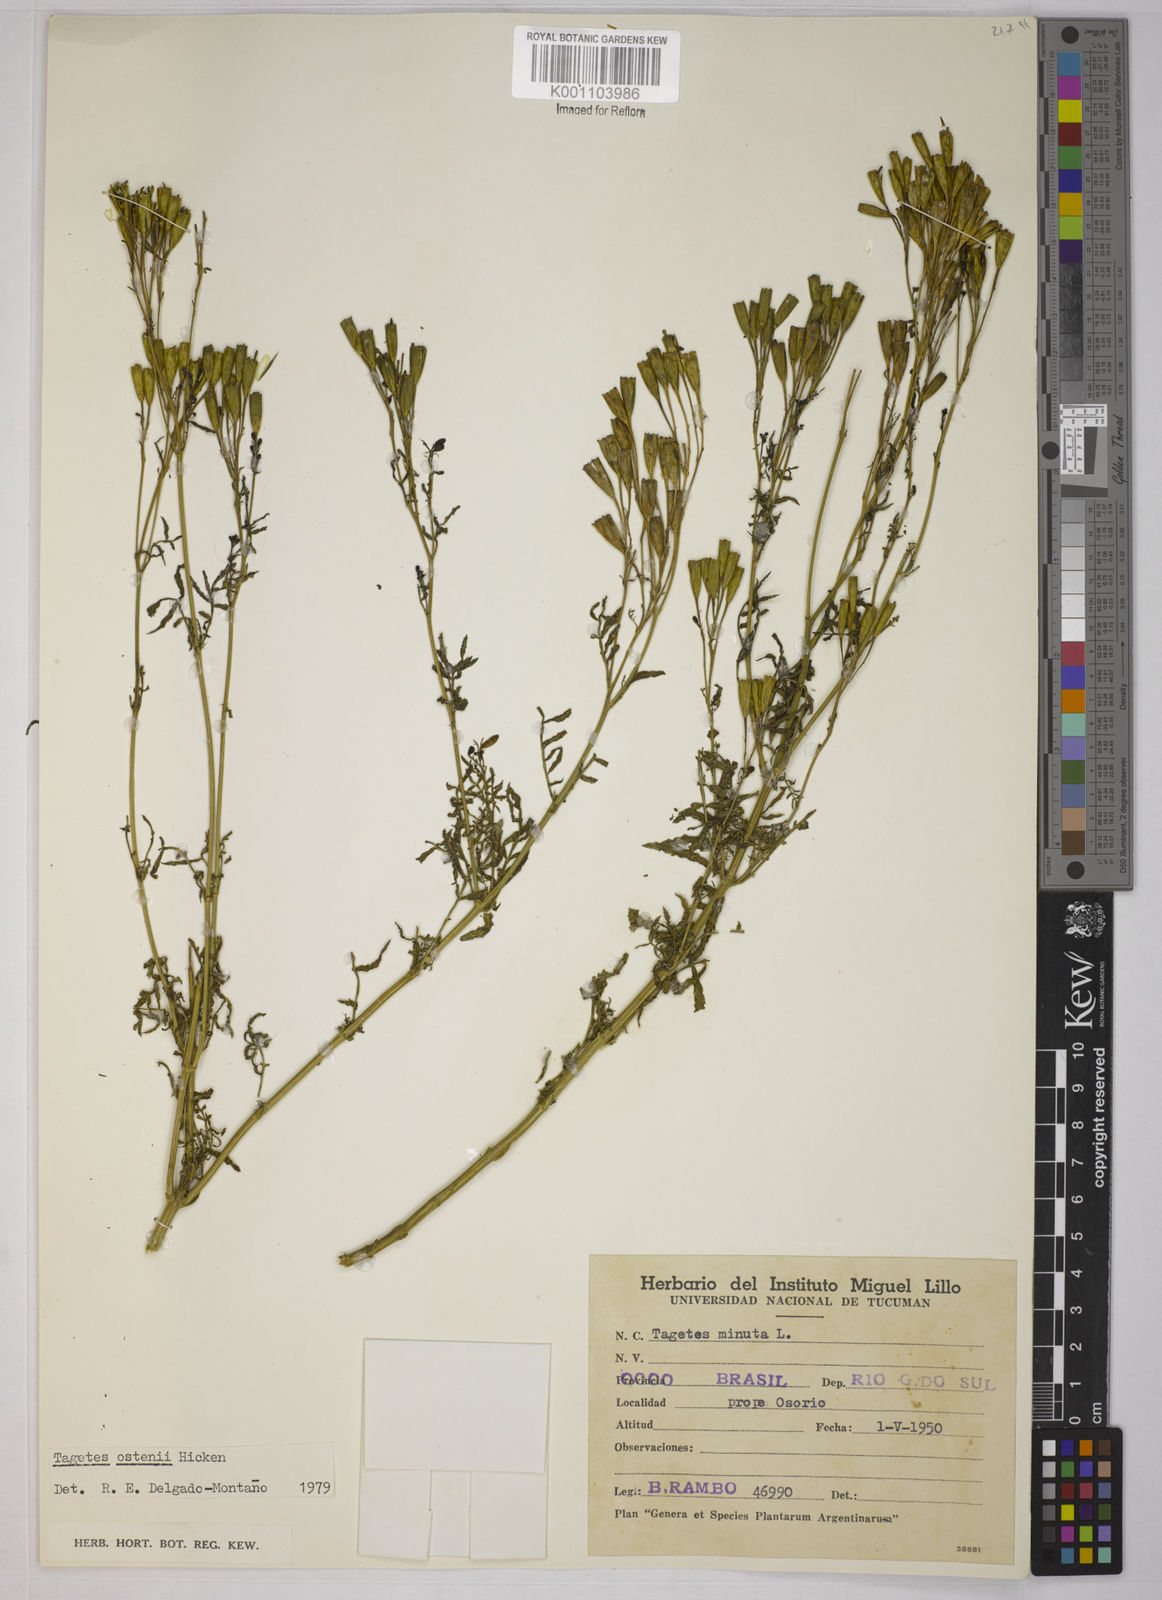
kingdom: Plantae
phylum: Tracheophyta
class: Magnoliopsida
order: Asterales
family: Asteraceae
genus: Tagetes
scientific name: Tagetes ostenii
